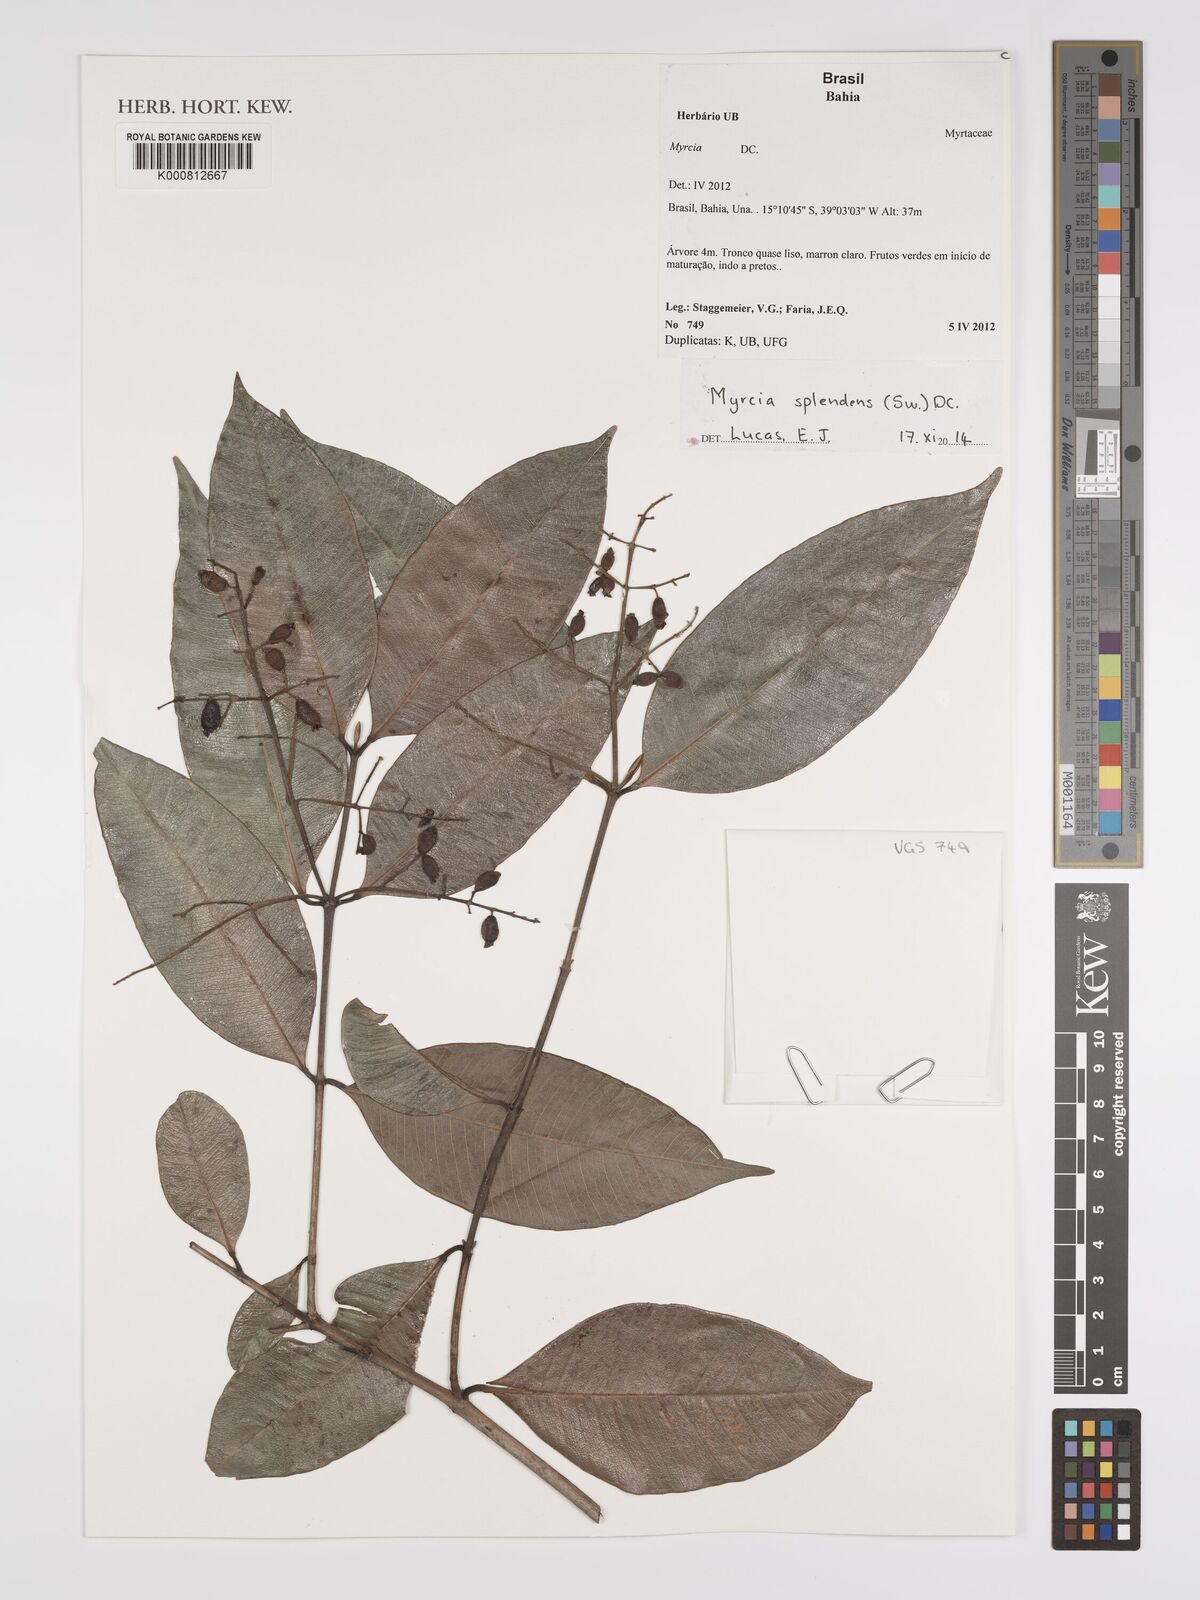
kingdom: Plantae
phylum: Tracheophyta
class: Magnoliopsida
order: Myrtales
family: Myrtaceae
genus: Myrcia
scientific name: Myrcia splendens
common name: Surinam cherry
